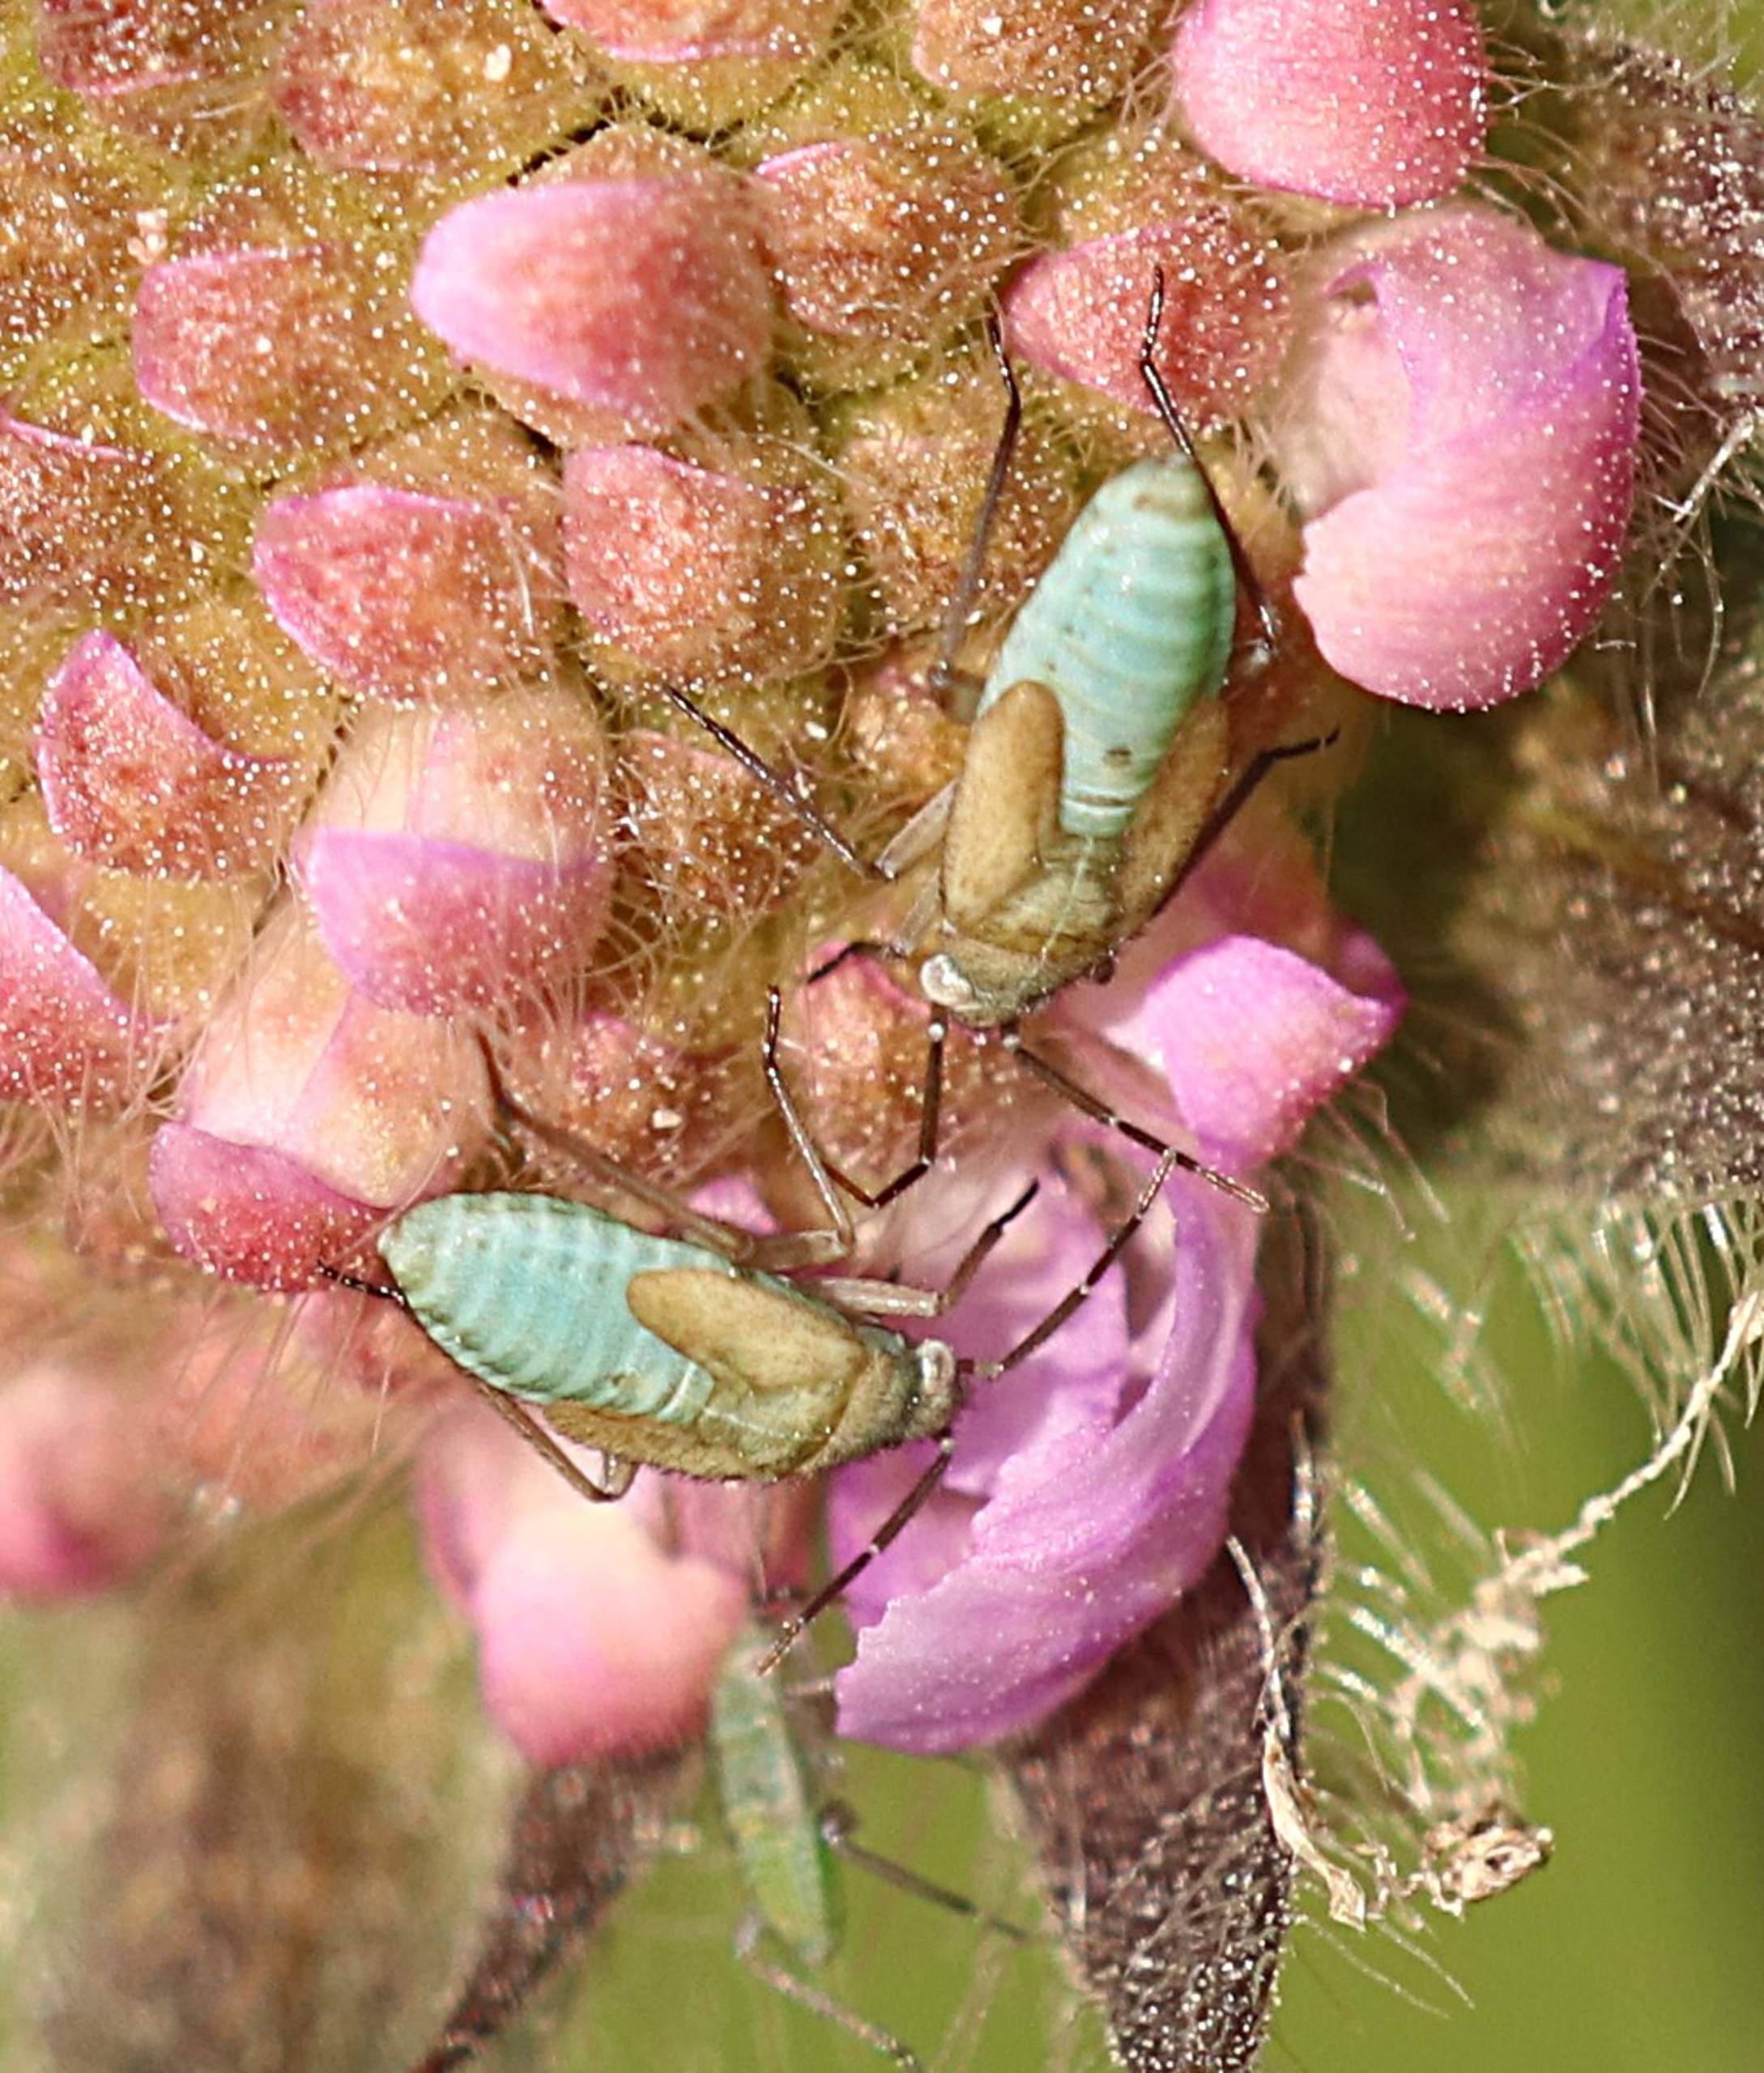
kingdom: Animalia
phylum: Arthropoda
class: Insecta
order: Hemiptera
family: Miridae
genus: Placochilus
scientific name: Placochilus seladonicus
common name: Blåhatblomstertæge
